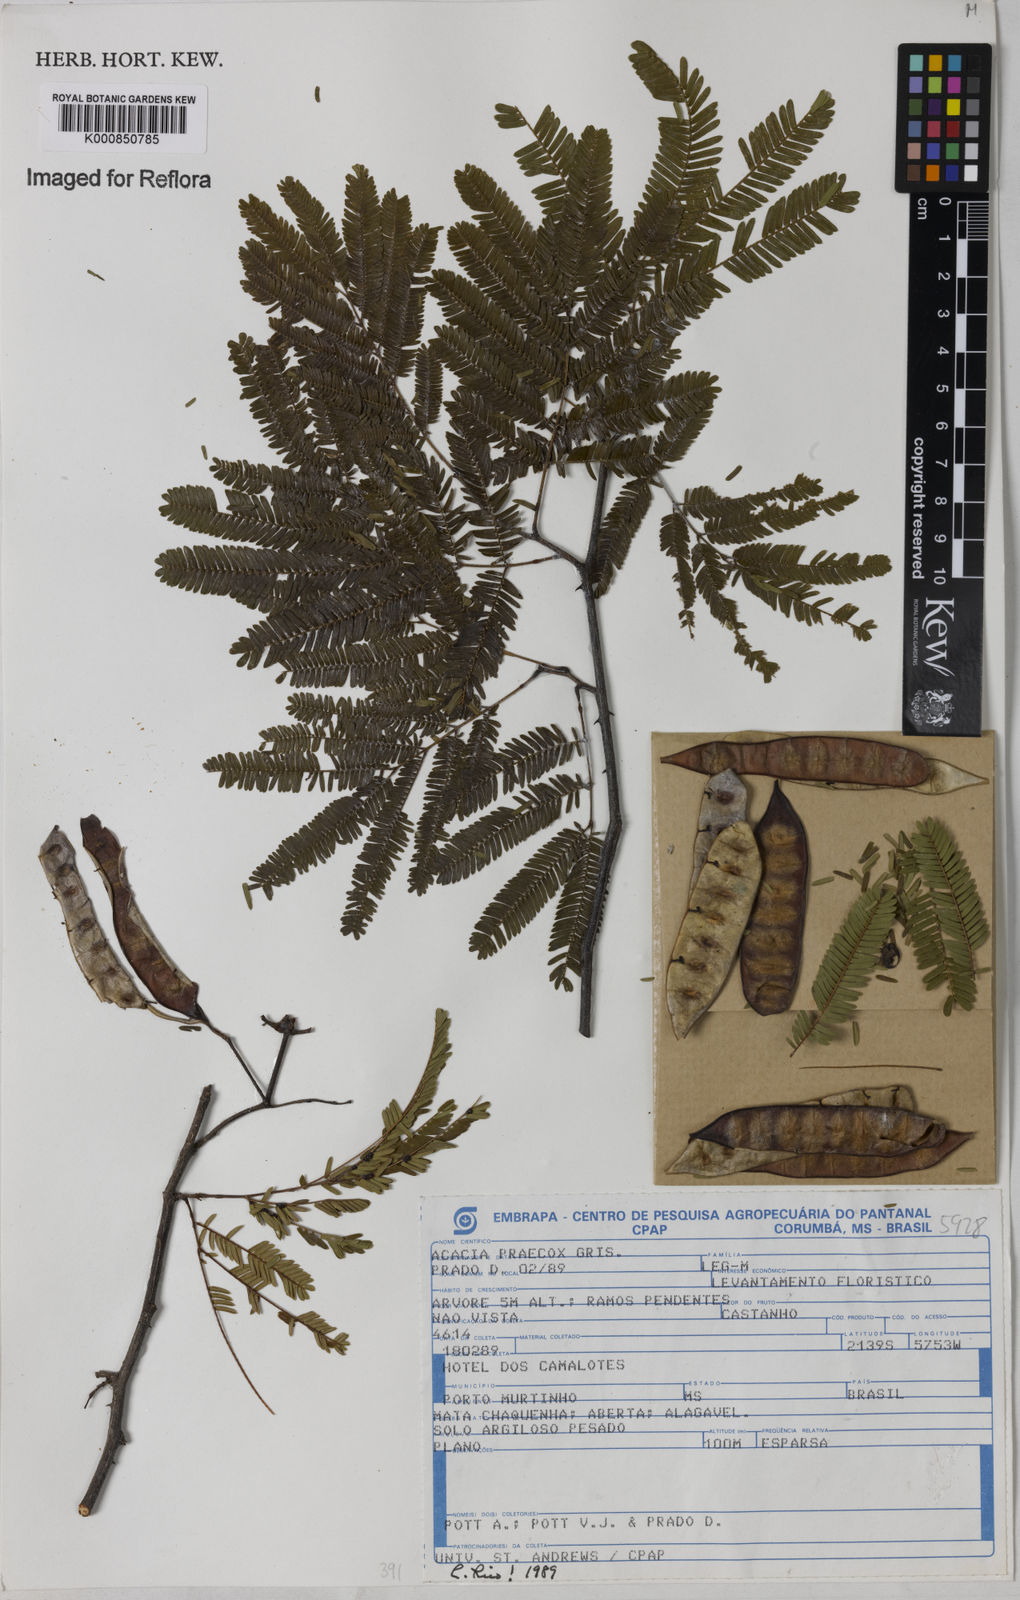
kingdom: Plantae
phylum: Tracheophyta
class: Magnoliopsida
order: Fabales
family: Fabaceae
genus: Senegalia
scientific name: Senegalia praecox
